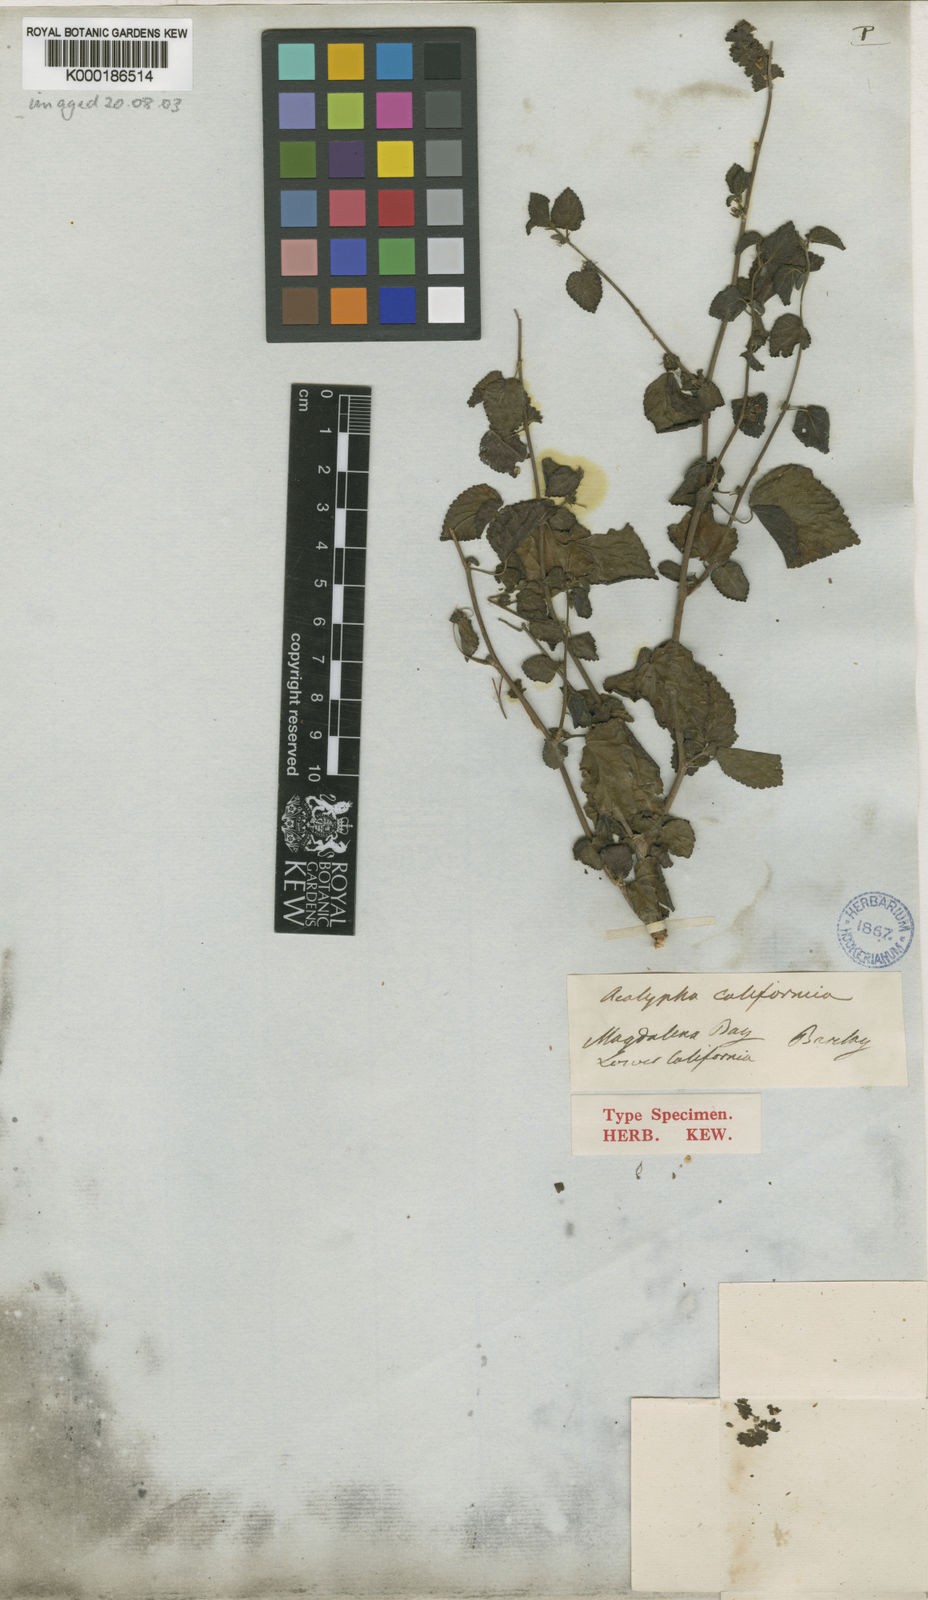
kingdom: Plantae
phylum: Tracheophyta
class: Magnoliopsida
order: Malpighiales
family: Euphorbiaceae
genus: Acalypha
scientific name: Acalypha californica
